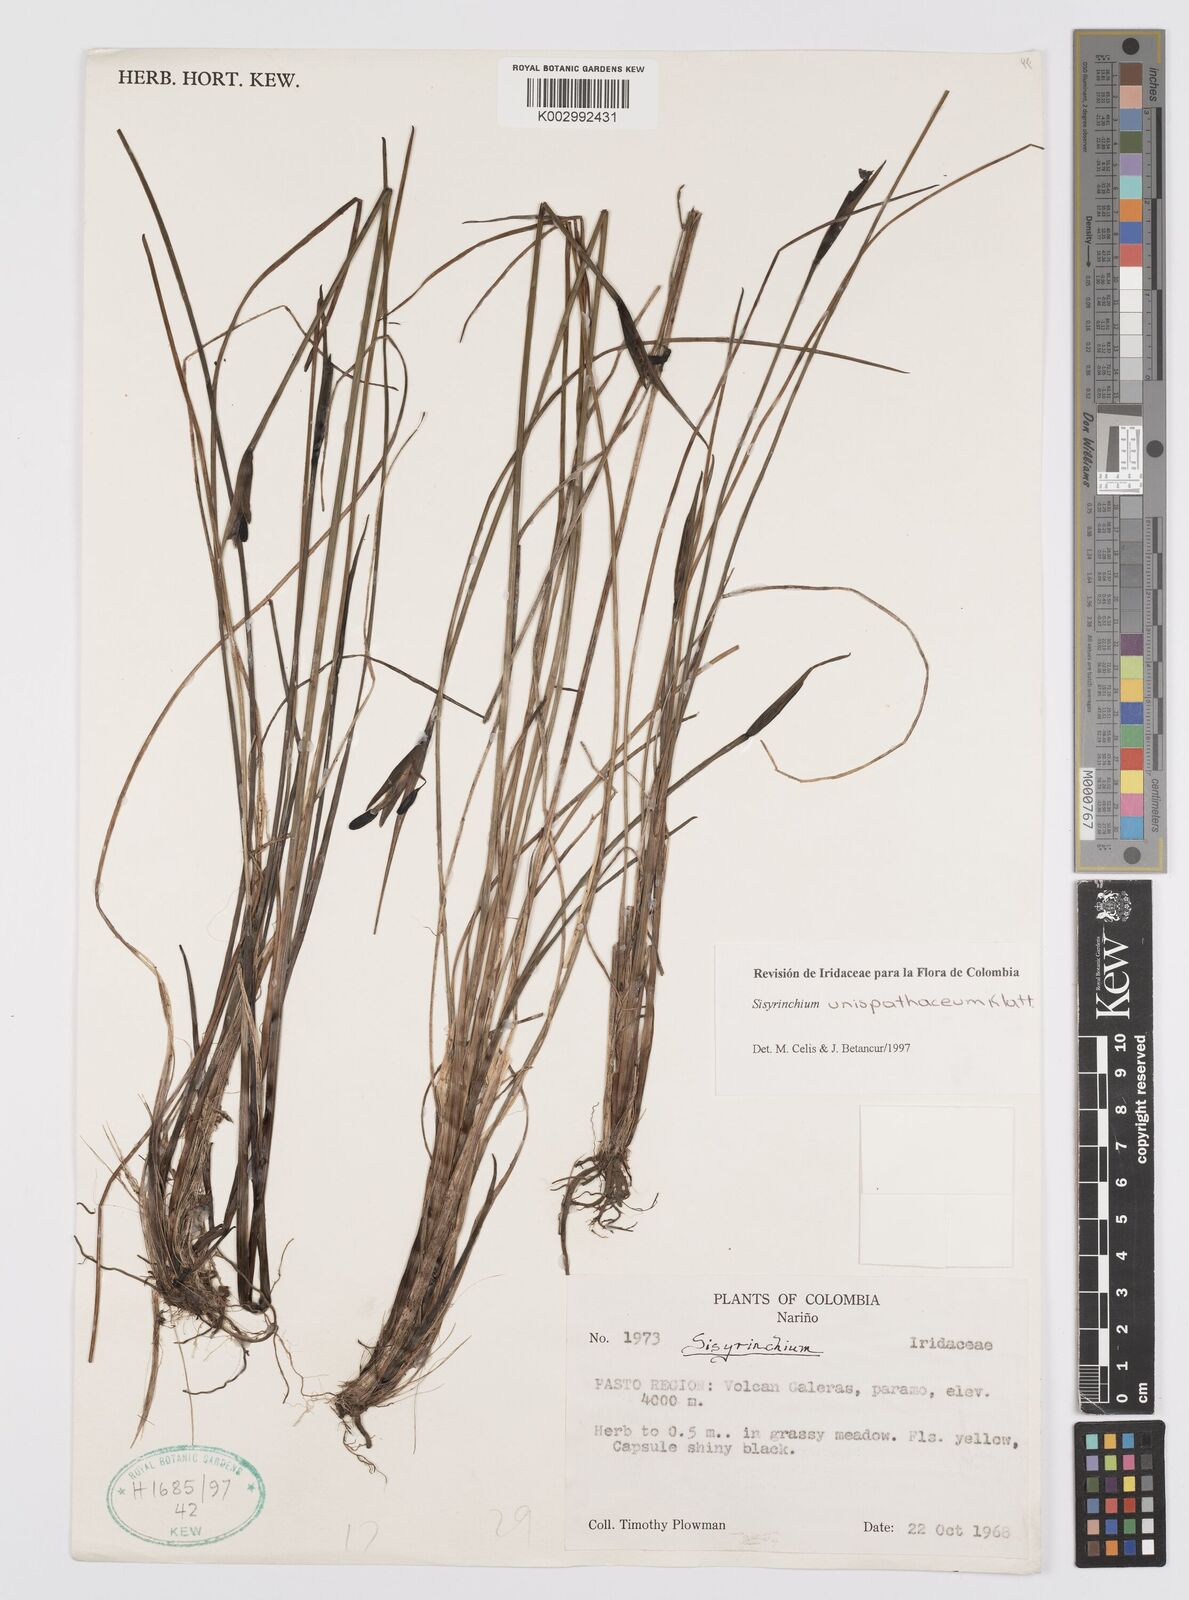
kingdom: Plantae
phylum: Tracheophyta
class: Liliopsida
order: Asparagales
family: Iridaceae
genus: Sisyrinchium
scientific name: Sisyrinchium unispathaceum
